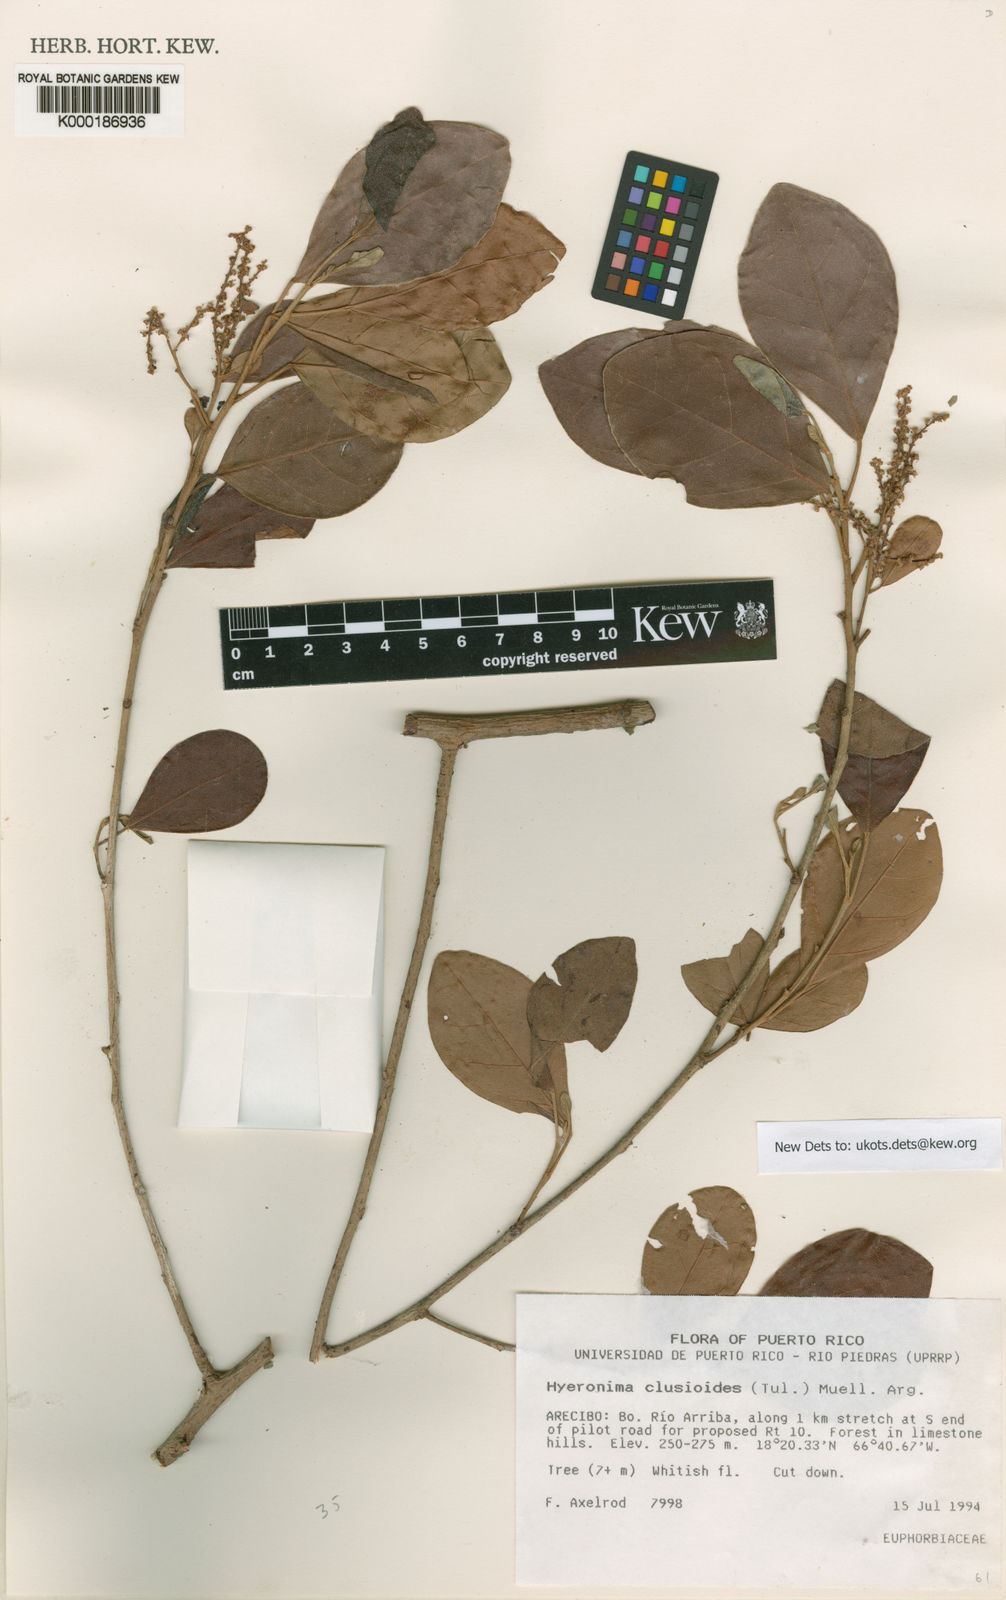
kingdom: Plantae
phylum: Tracheophyta
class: Magnoliopsida
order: Malpighiales
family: Phyllanthaceae
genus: Hieronyma
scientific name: Hieronyma clusioides
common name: Cedro macho
